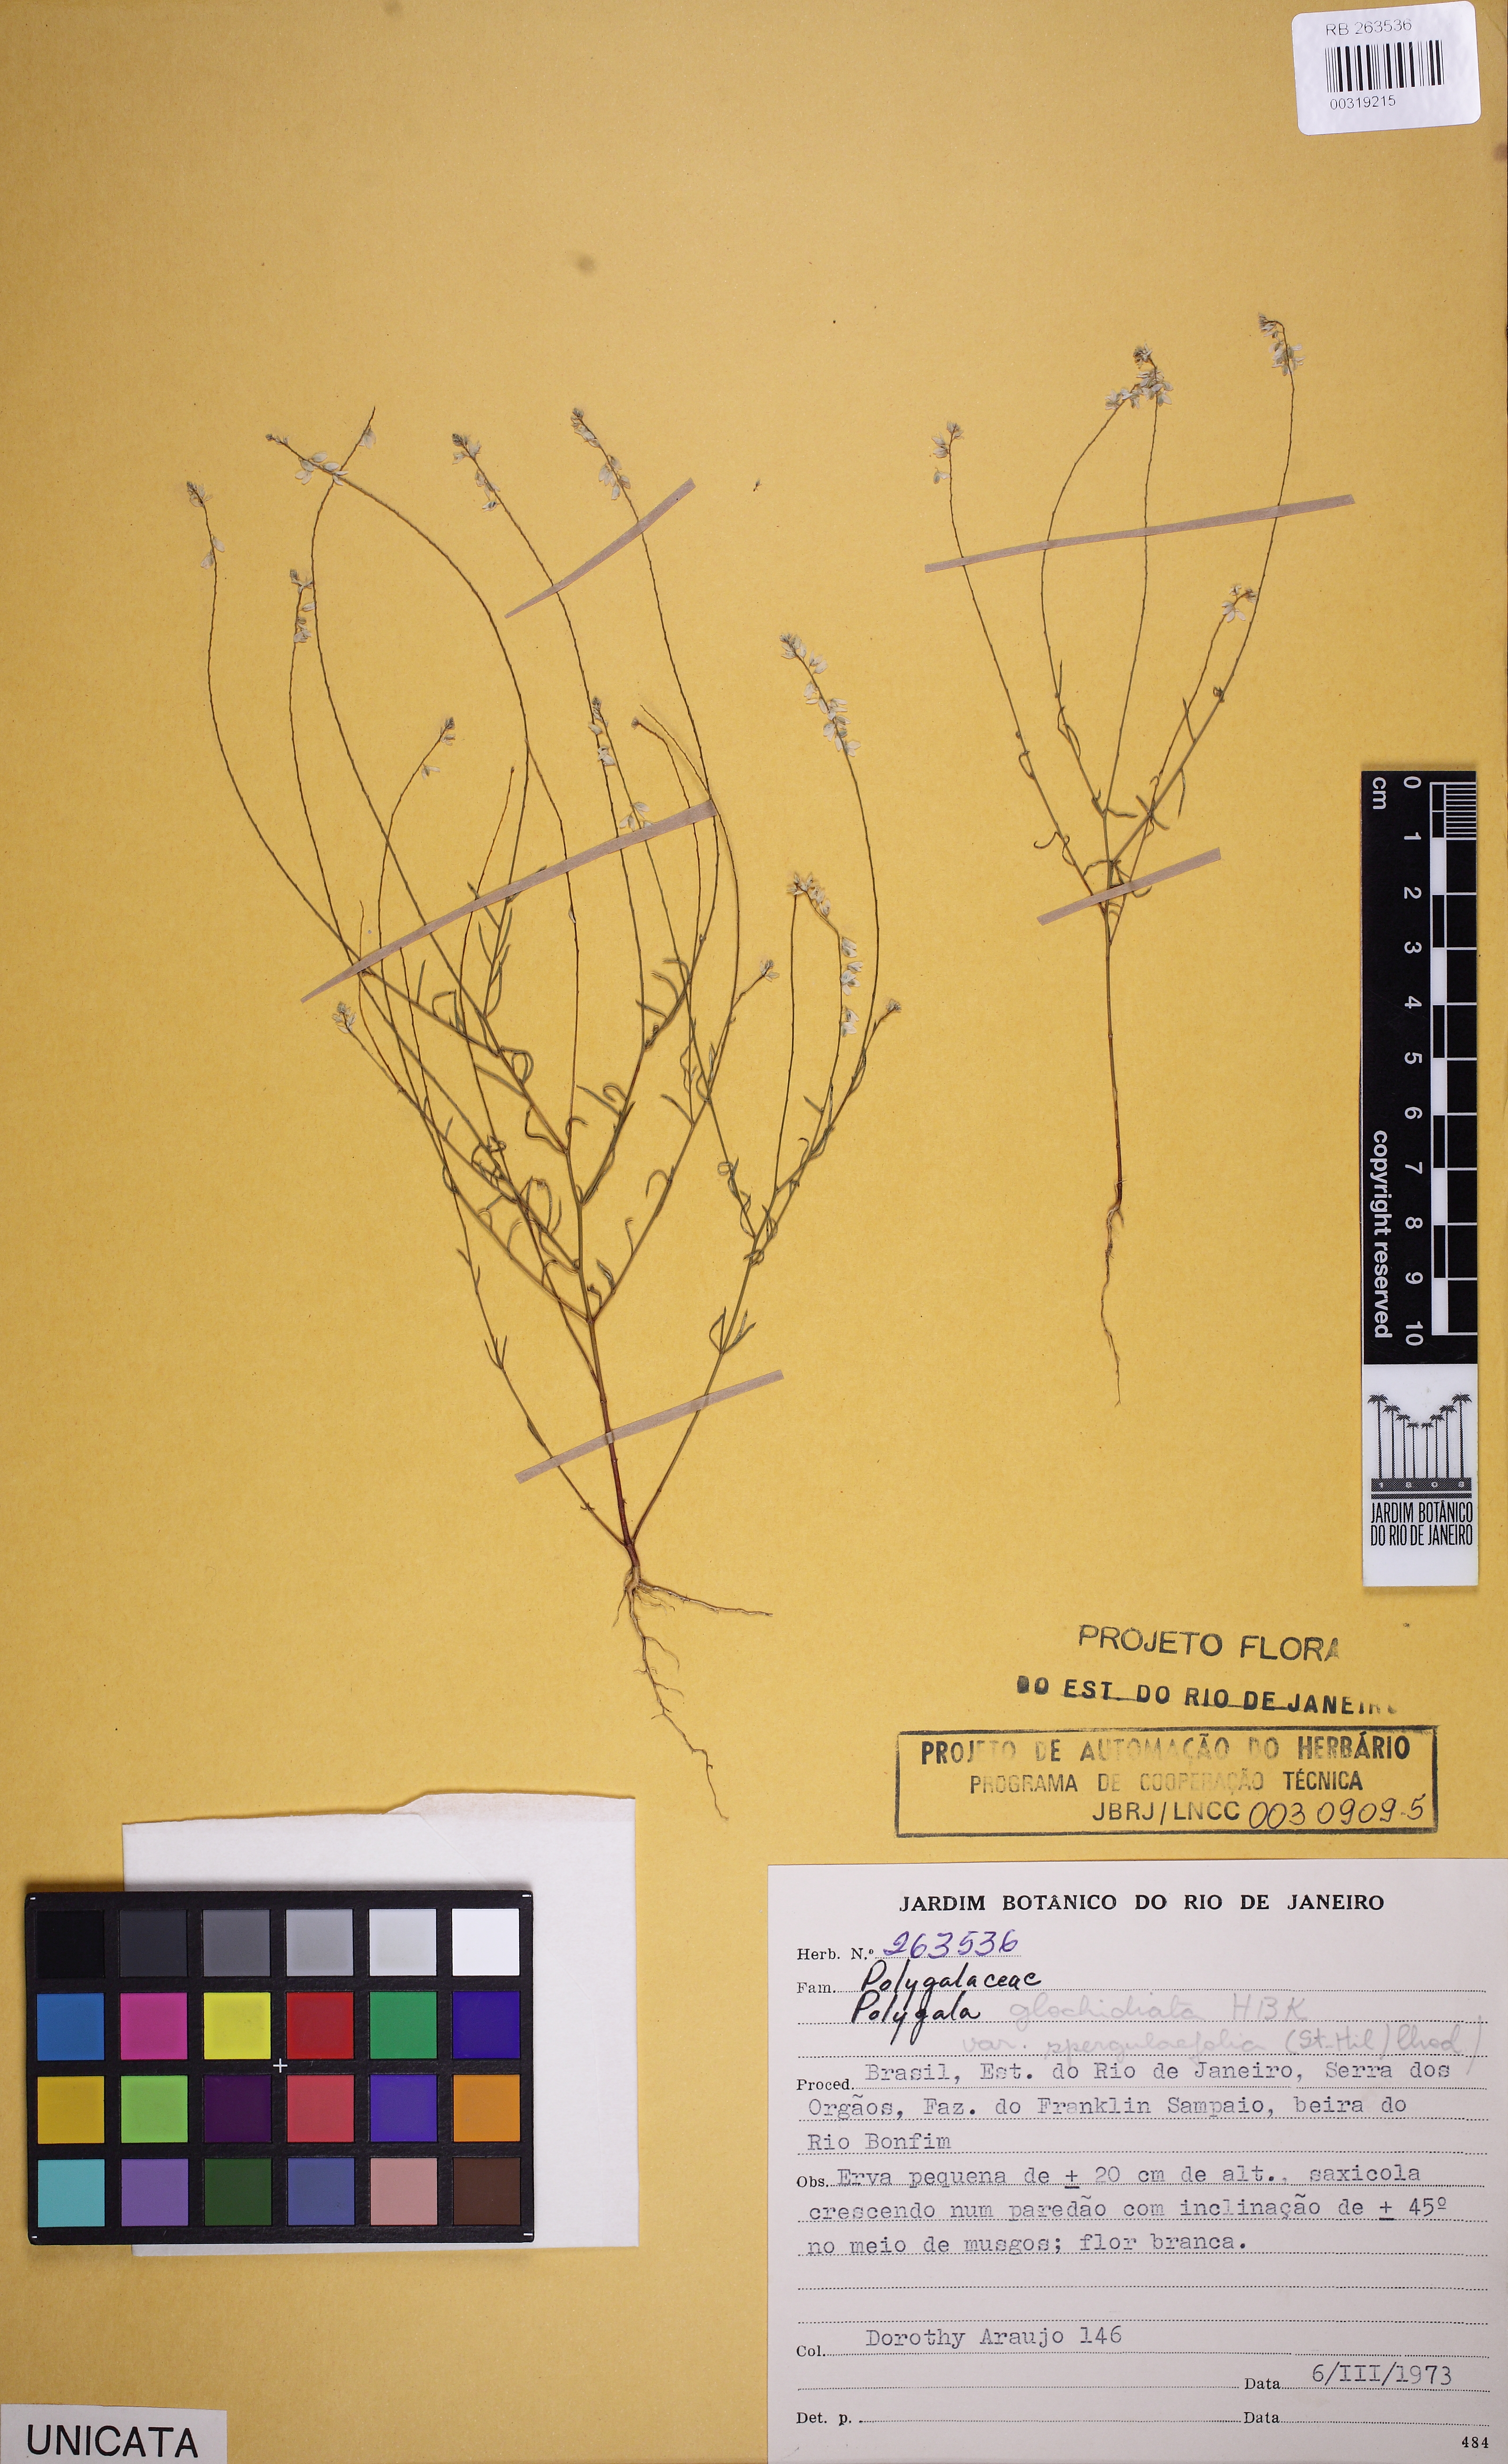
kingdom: Plantae
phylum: Tracheophyta
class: Magnoliopsida
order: Fabales
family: Polygalaceae
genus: Polygala
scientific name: Polygala glochidiata
